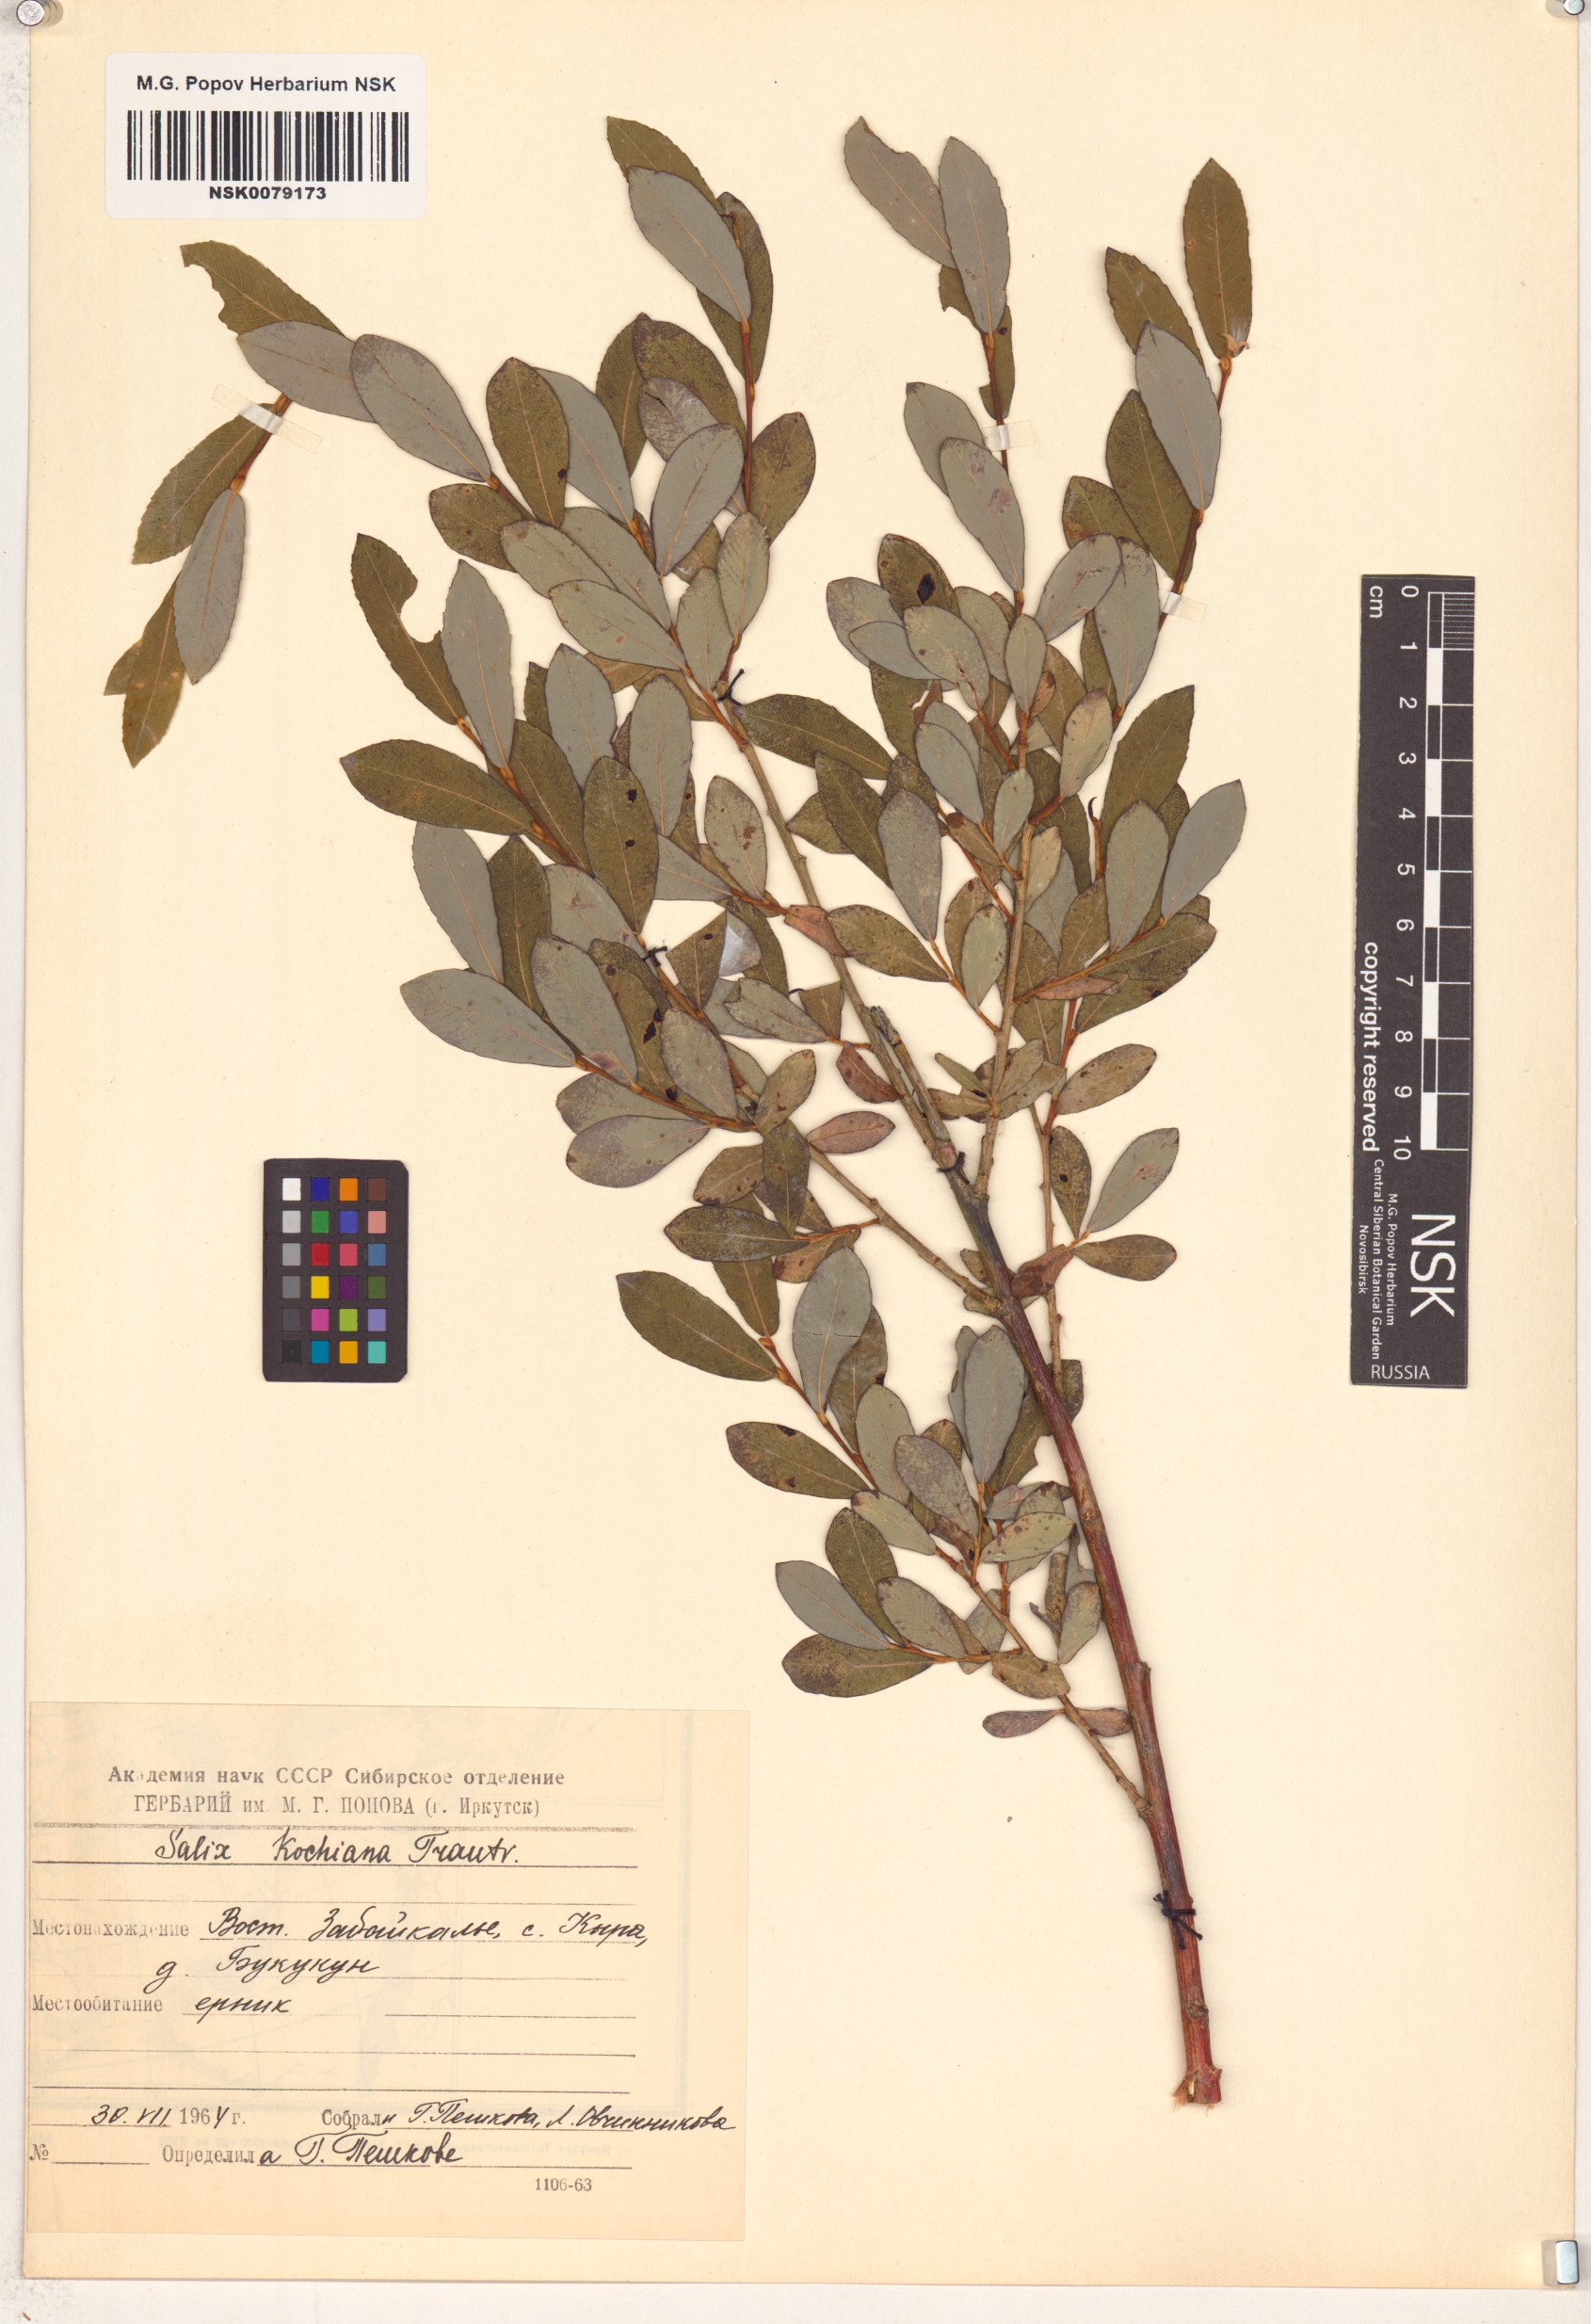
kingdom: Plantae
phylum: Tracheophyta
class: Magnoliopsida
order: Malpighiales
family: Salicaceae
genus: Salix
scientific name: Salix kochiana
